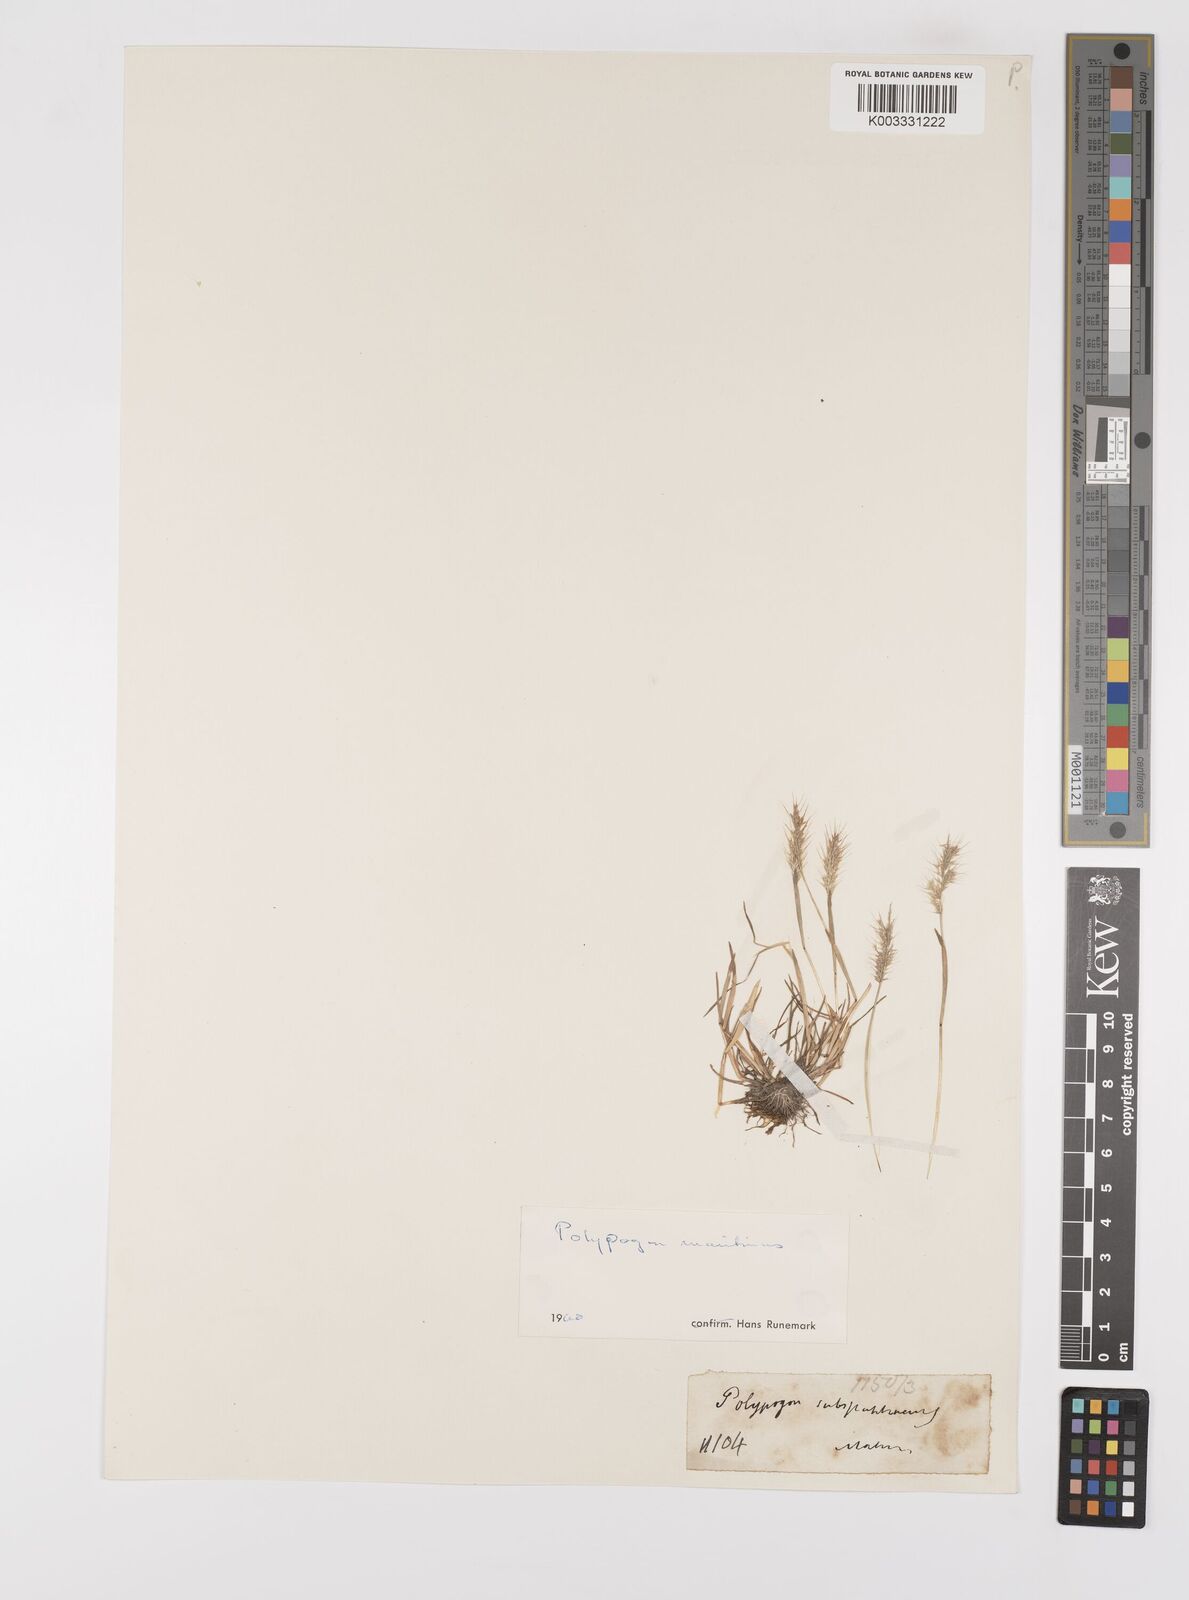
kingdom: Plantae
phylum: Tracheophyta
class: Liliopsida
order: Poales
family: Poaceae
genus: Polypogon
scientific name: Polypogon maritimus
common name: Mediterranean rabbitsfoot grass
